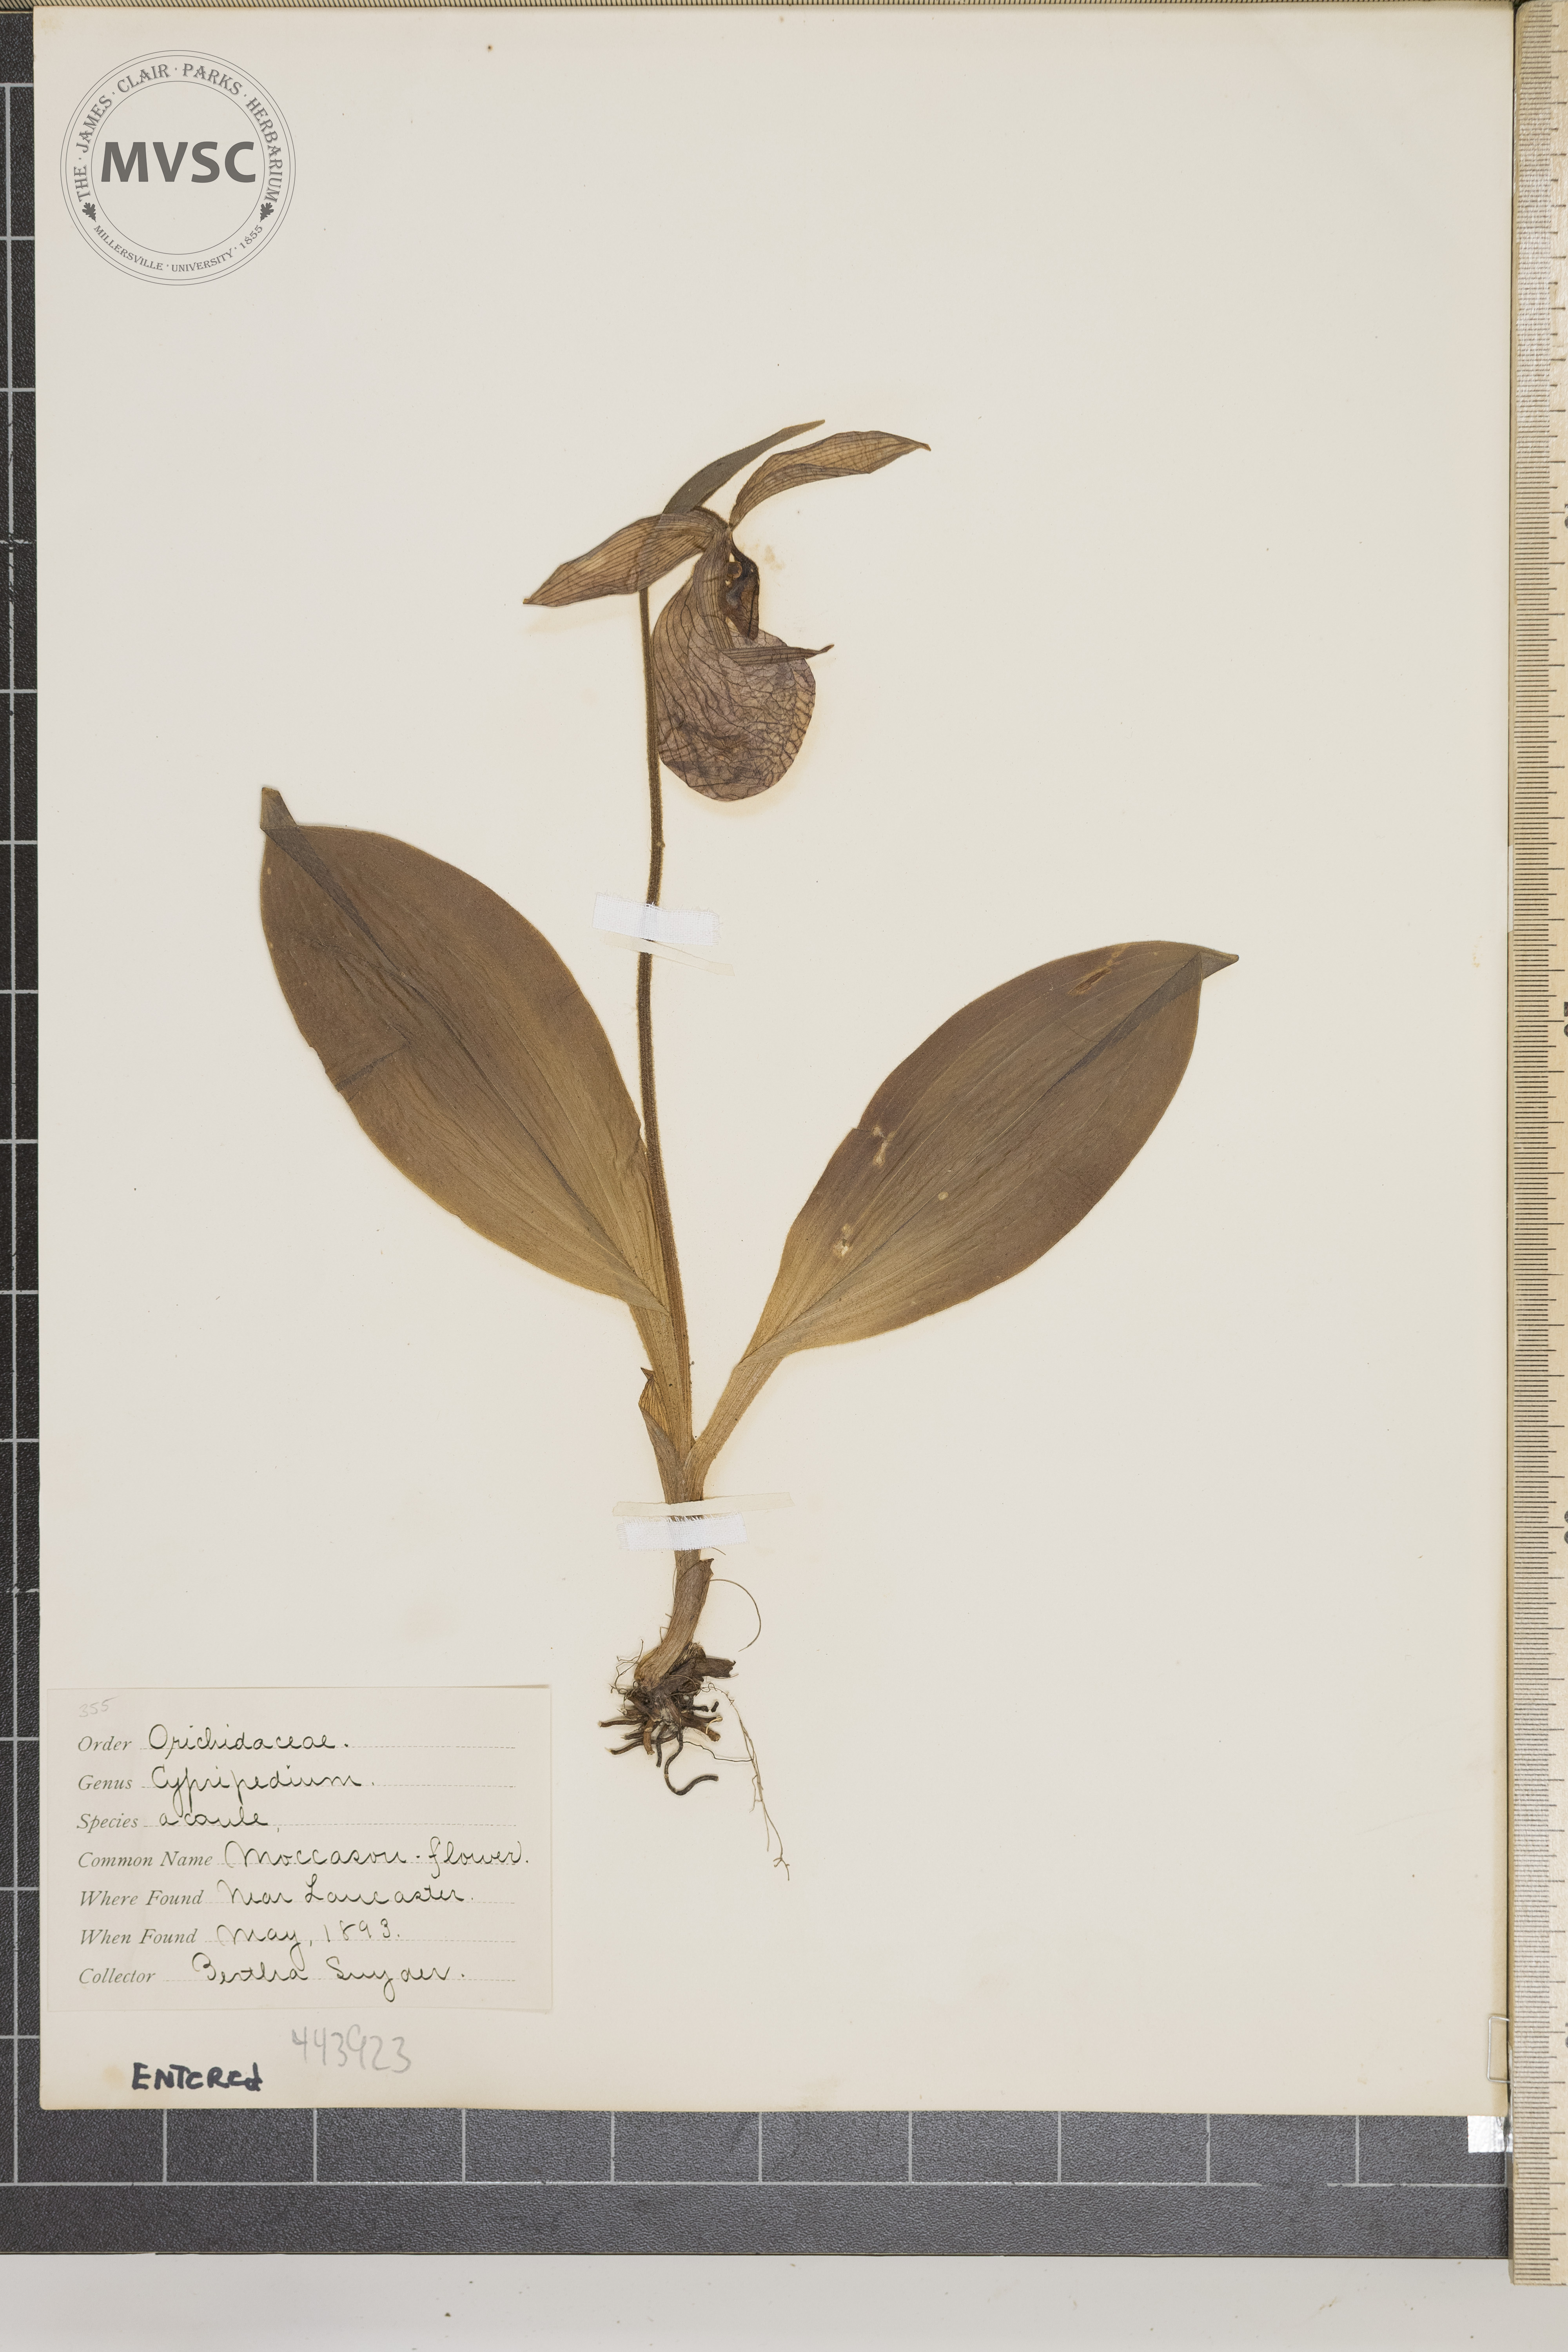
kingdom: Plantae
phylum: Tracheophyta
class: Liliopsida
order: Asparagales
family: Orchidaceae
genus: Cypripedium
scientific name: Cypripedium acaule
